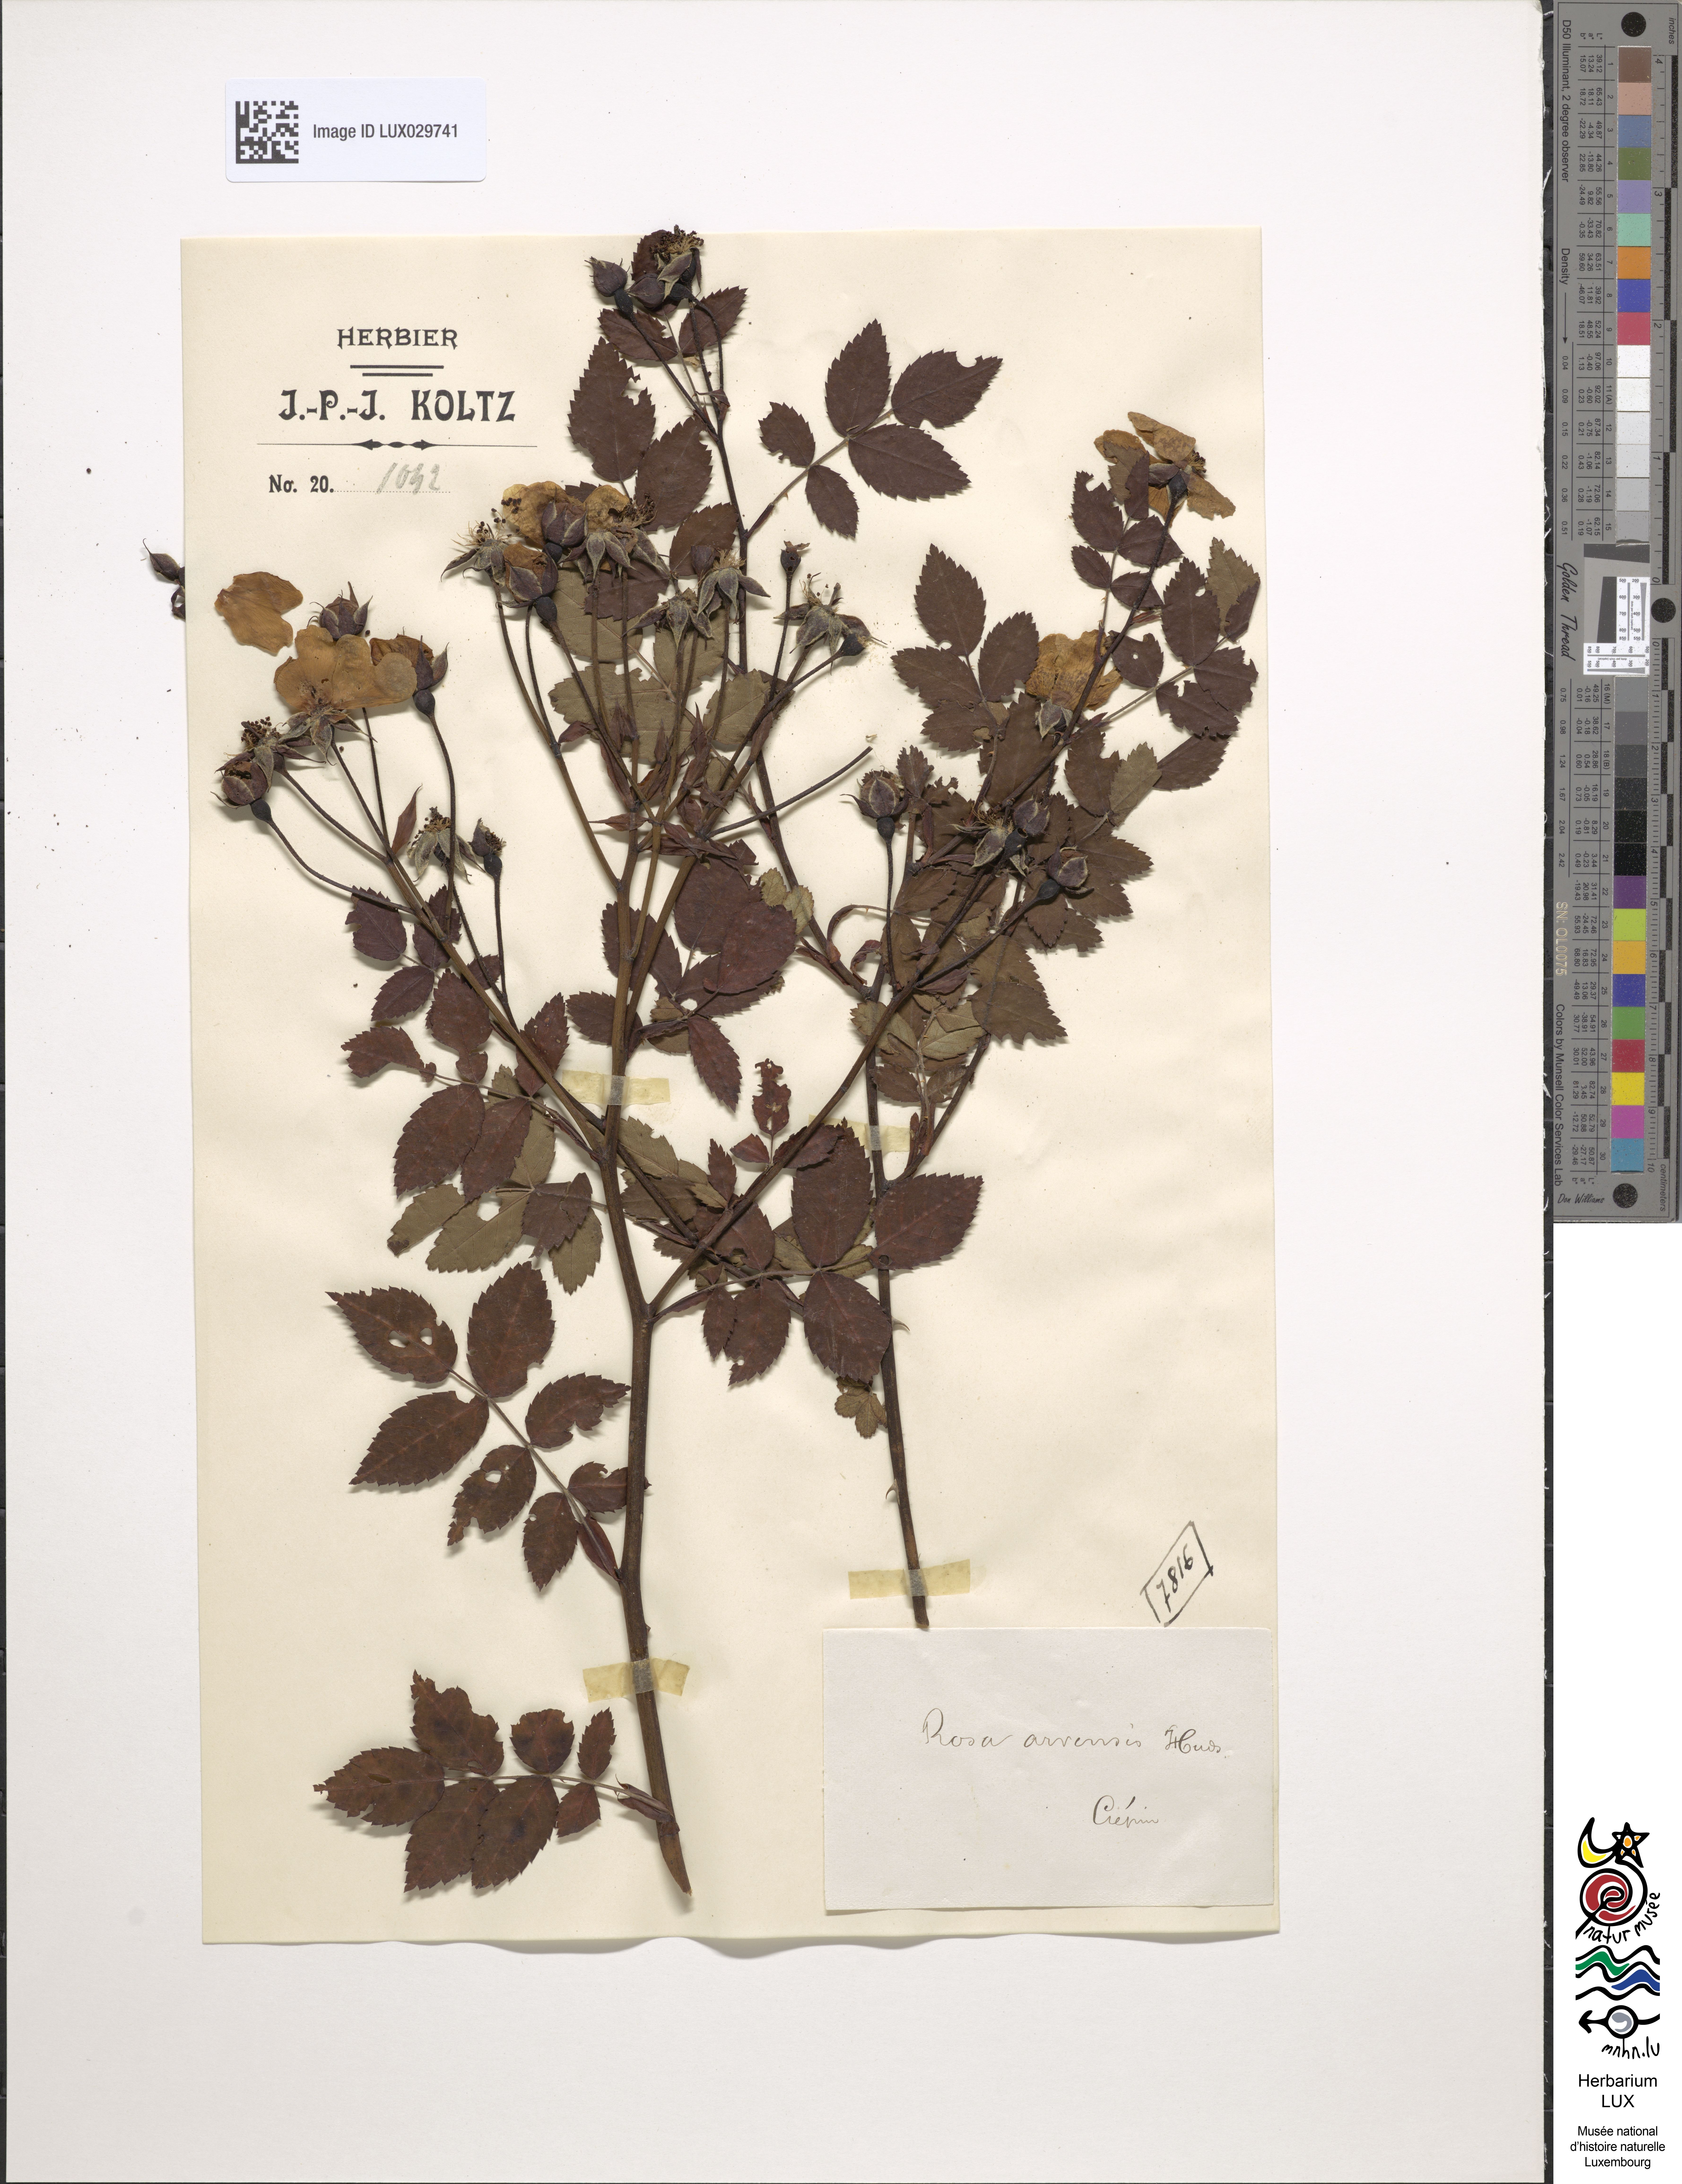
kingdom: Plantae
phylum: Tracheophyta
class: Magnoliopsida
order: Rosales
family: Rosaceae
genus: Rosa
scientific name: Rosa arvensis
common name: Field rose
